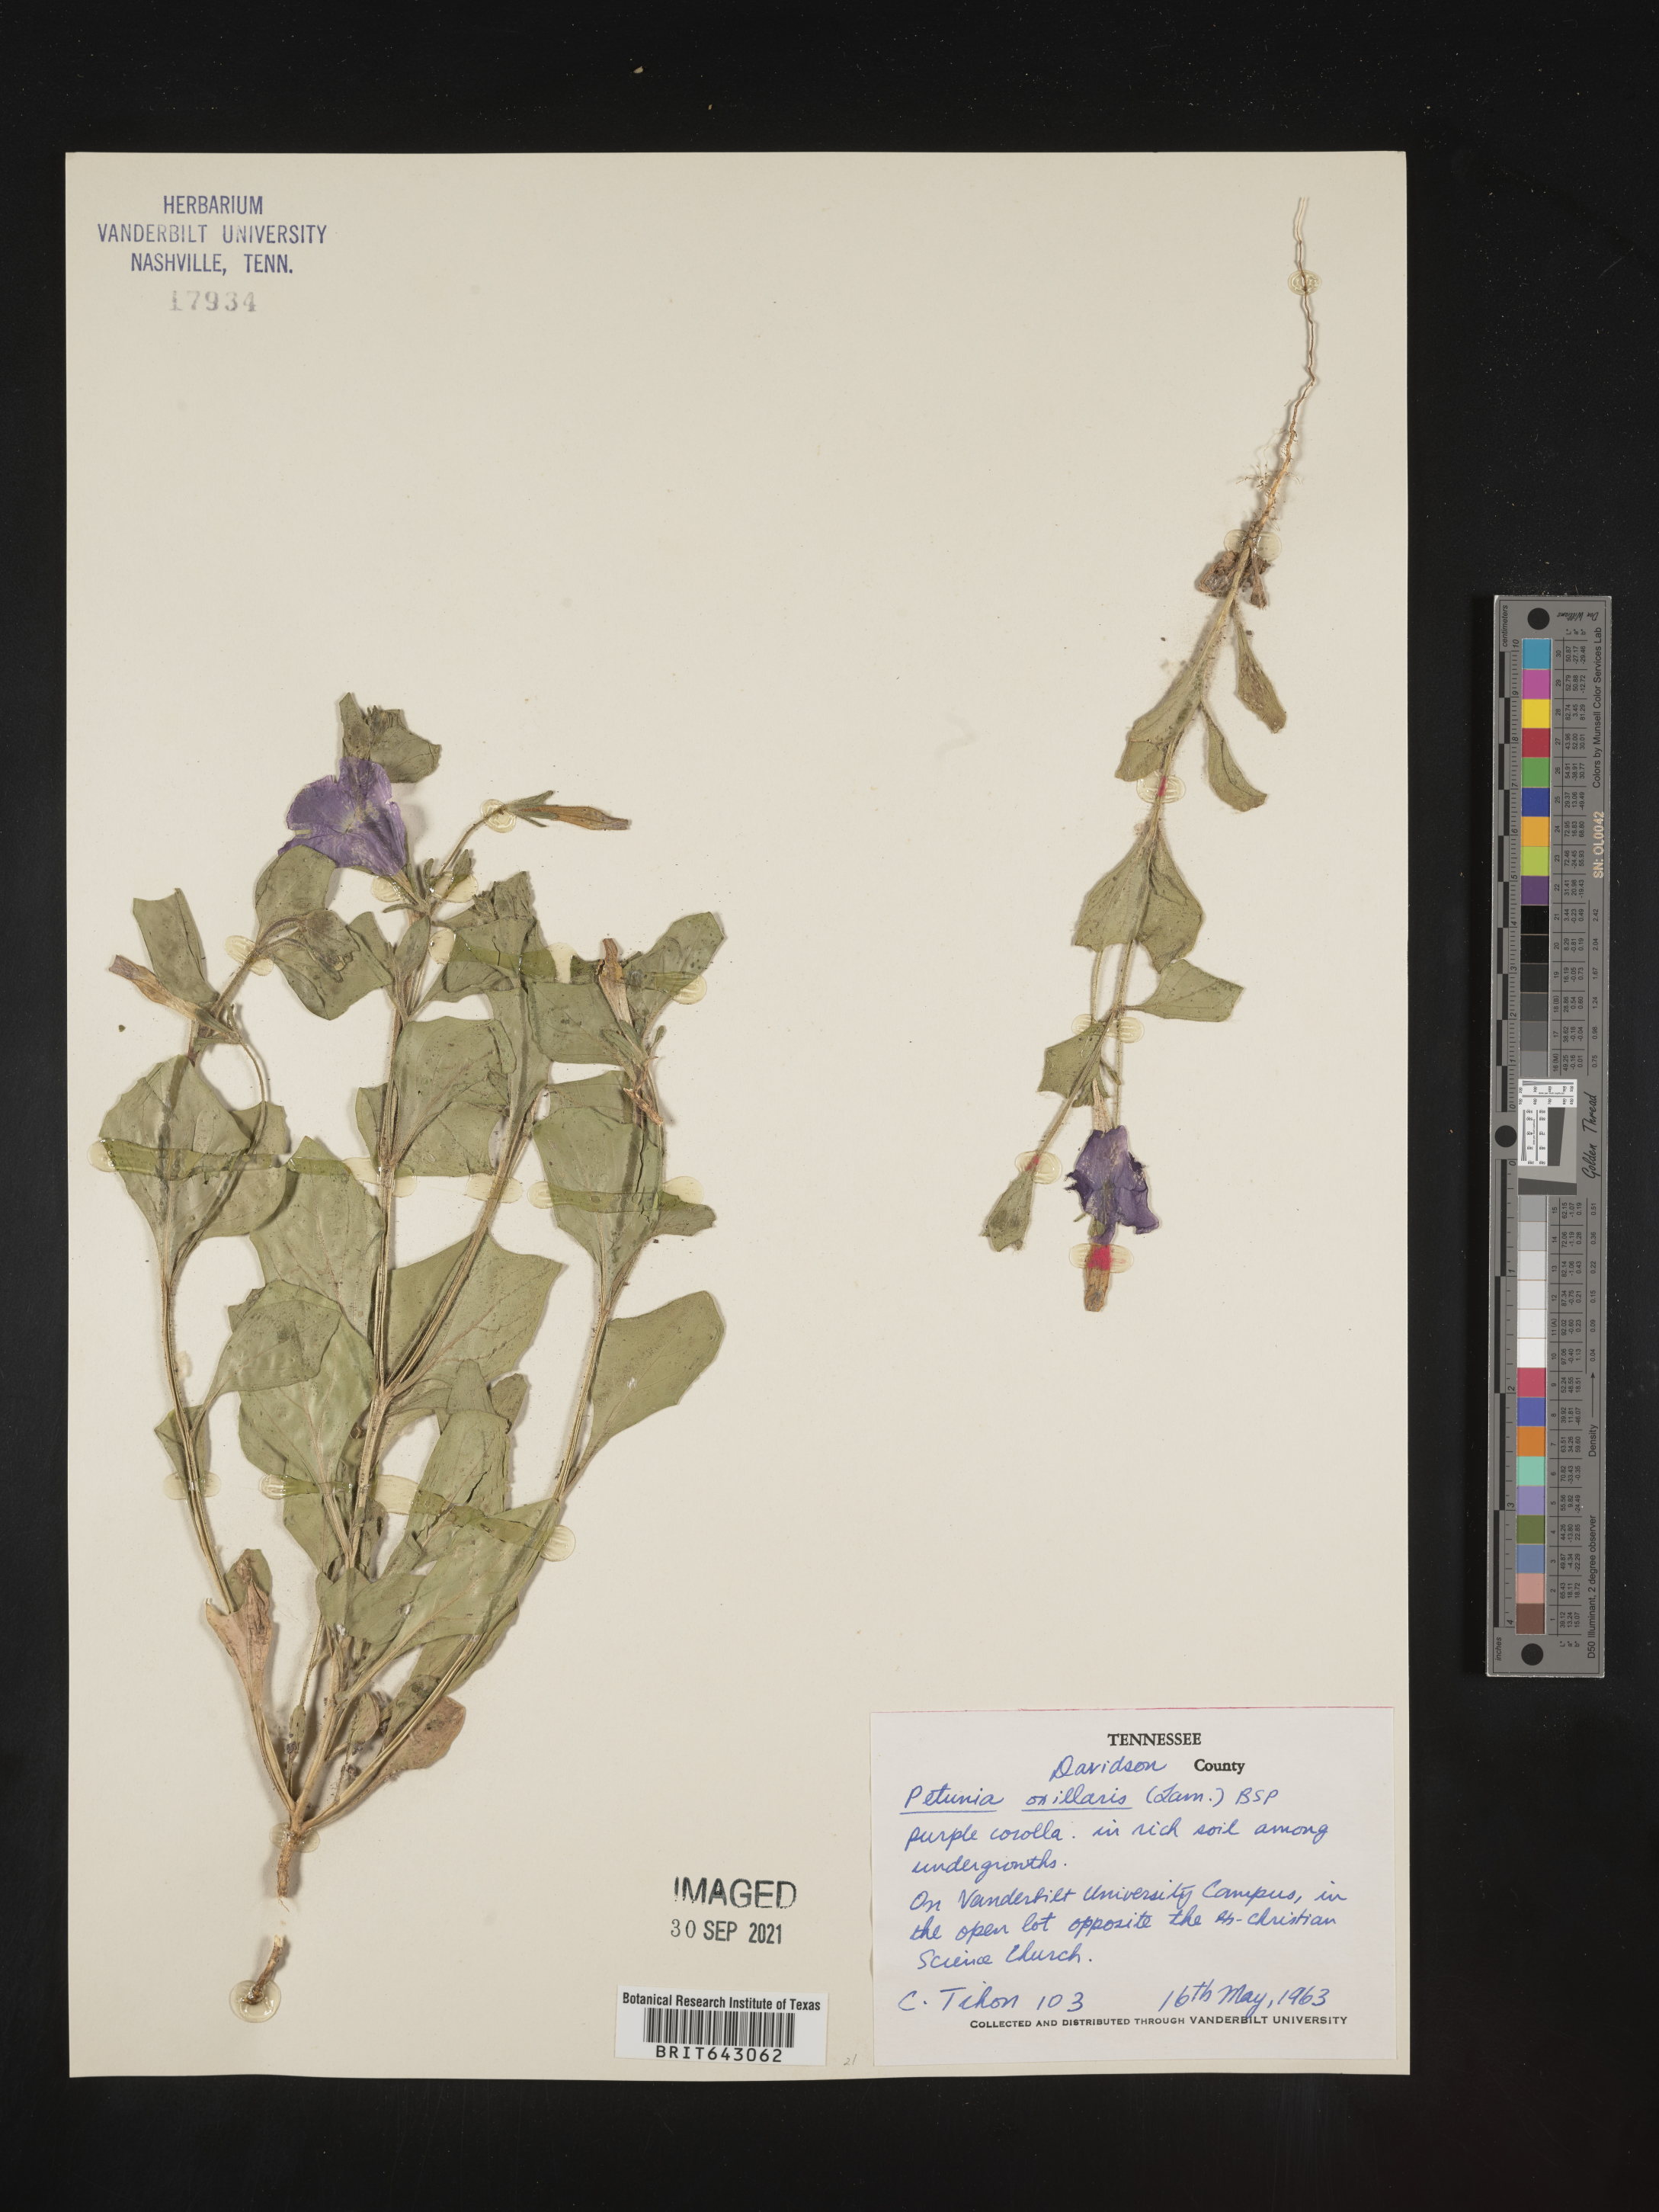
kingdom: Plantae
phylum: Tracheophyta
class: Magnoliopsida
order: Solanales
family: Solanaceae
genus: Petunia
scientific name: Petunia
